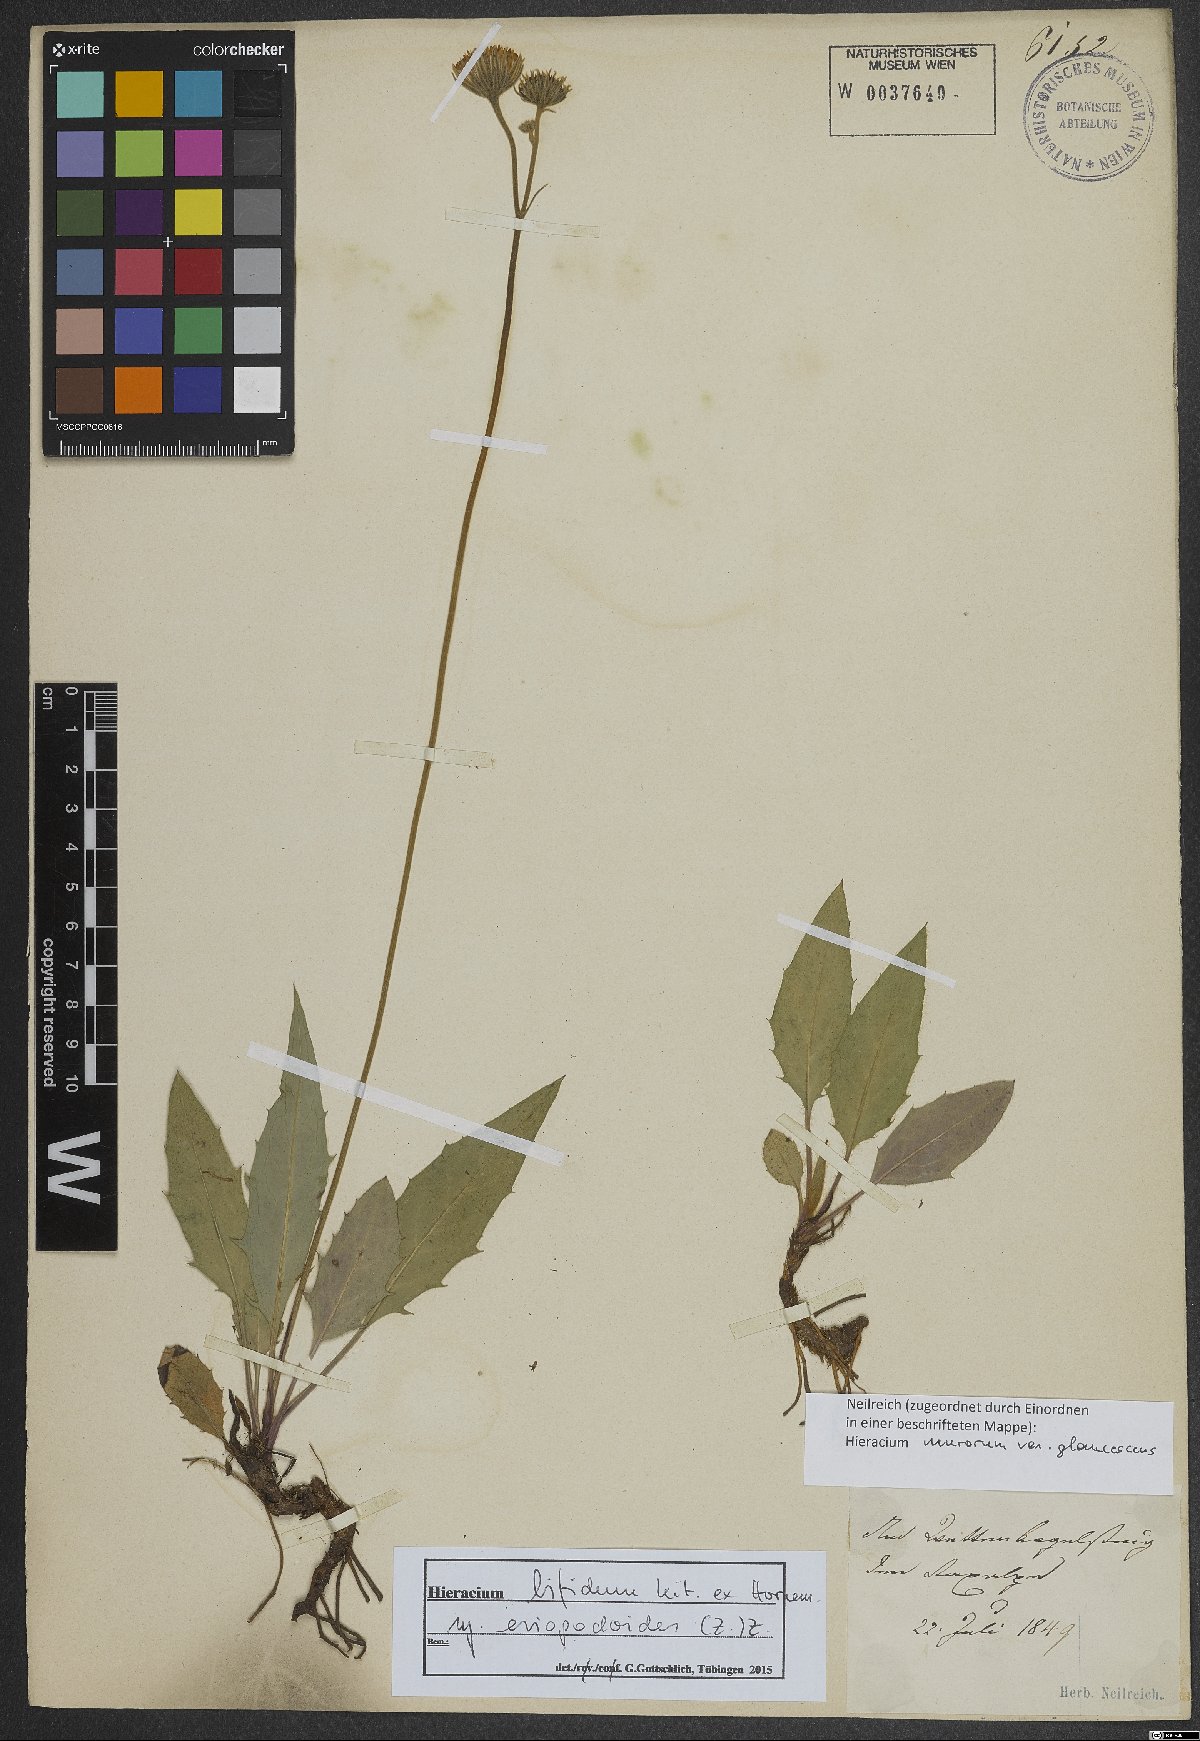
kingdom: Plantae
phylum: Tracheophyta
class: Magnoliopsida
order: Asterales
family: Asteraceae
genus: Hieracium
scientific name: Hieracium bifidum
